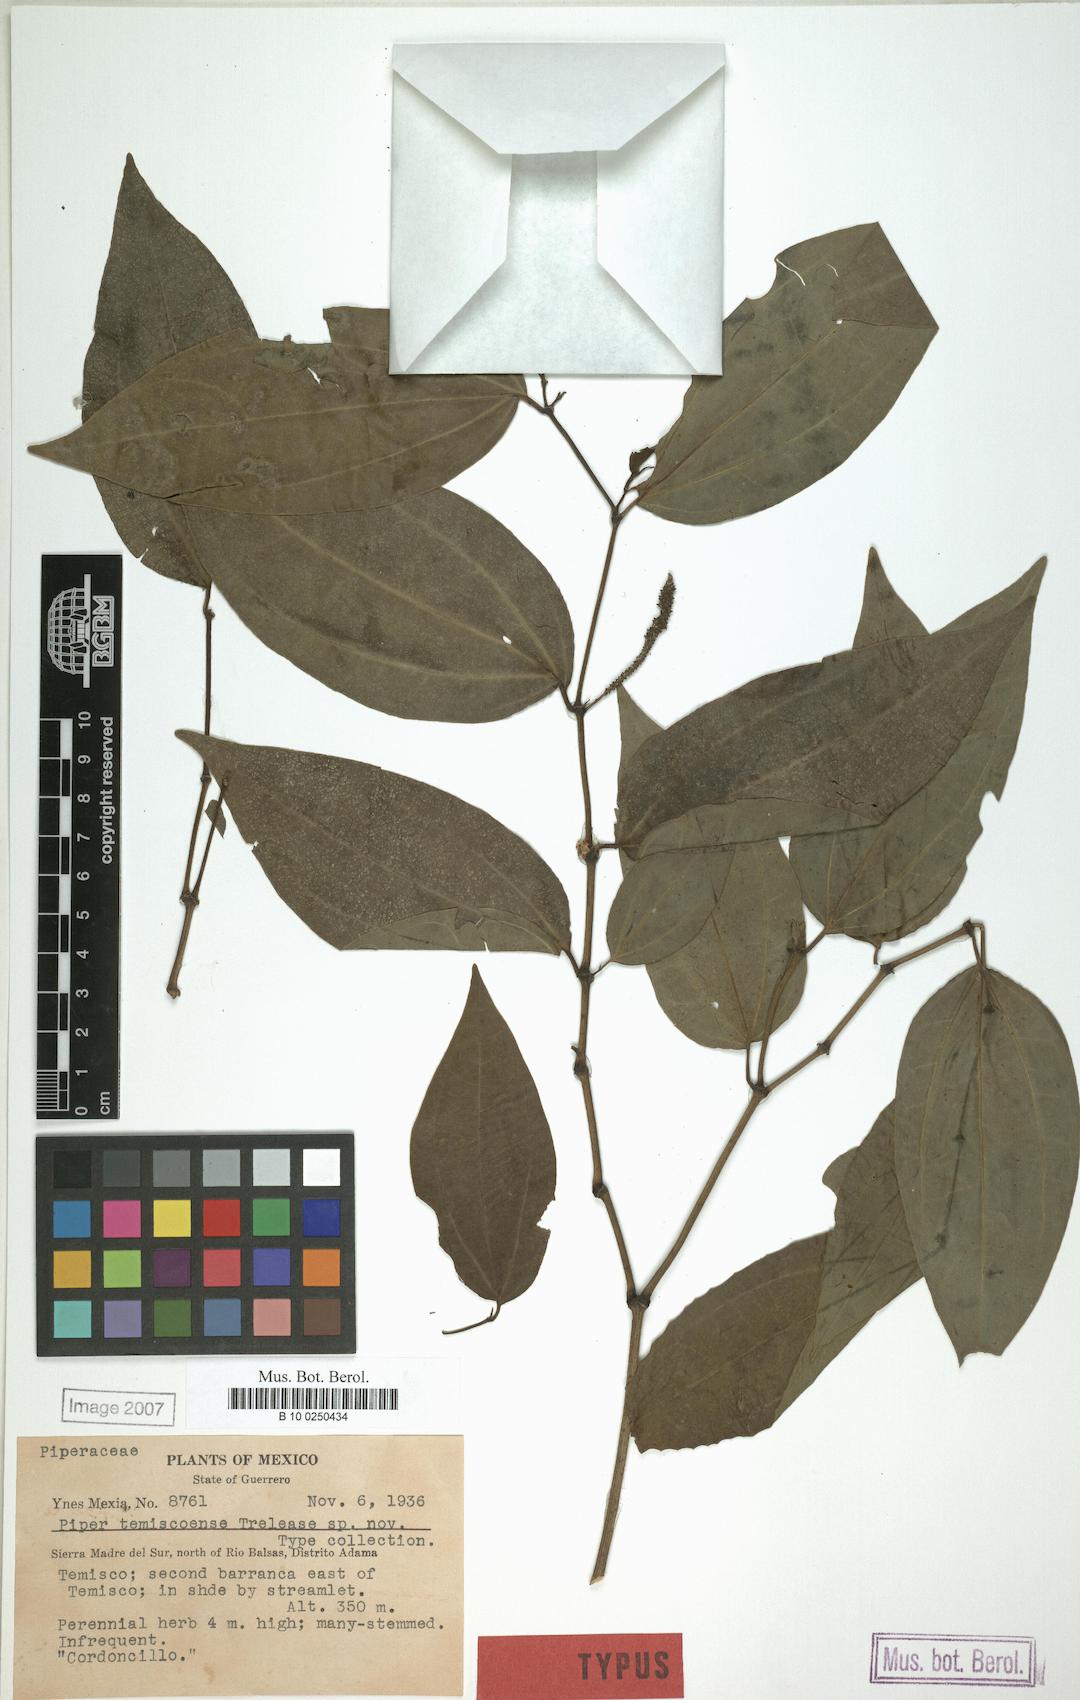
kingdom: Plantae
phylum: Tracheophyta
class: Magnoliopsida
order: Piperales
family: Piperaceae
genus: Piper
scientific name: Piper temiscoense
